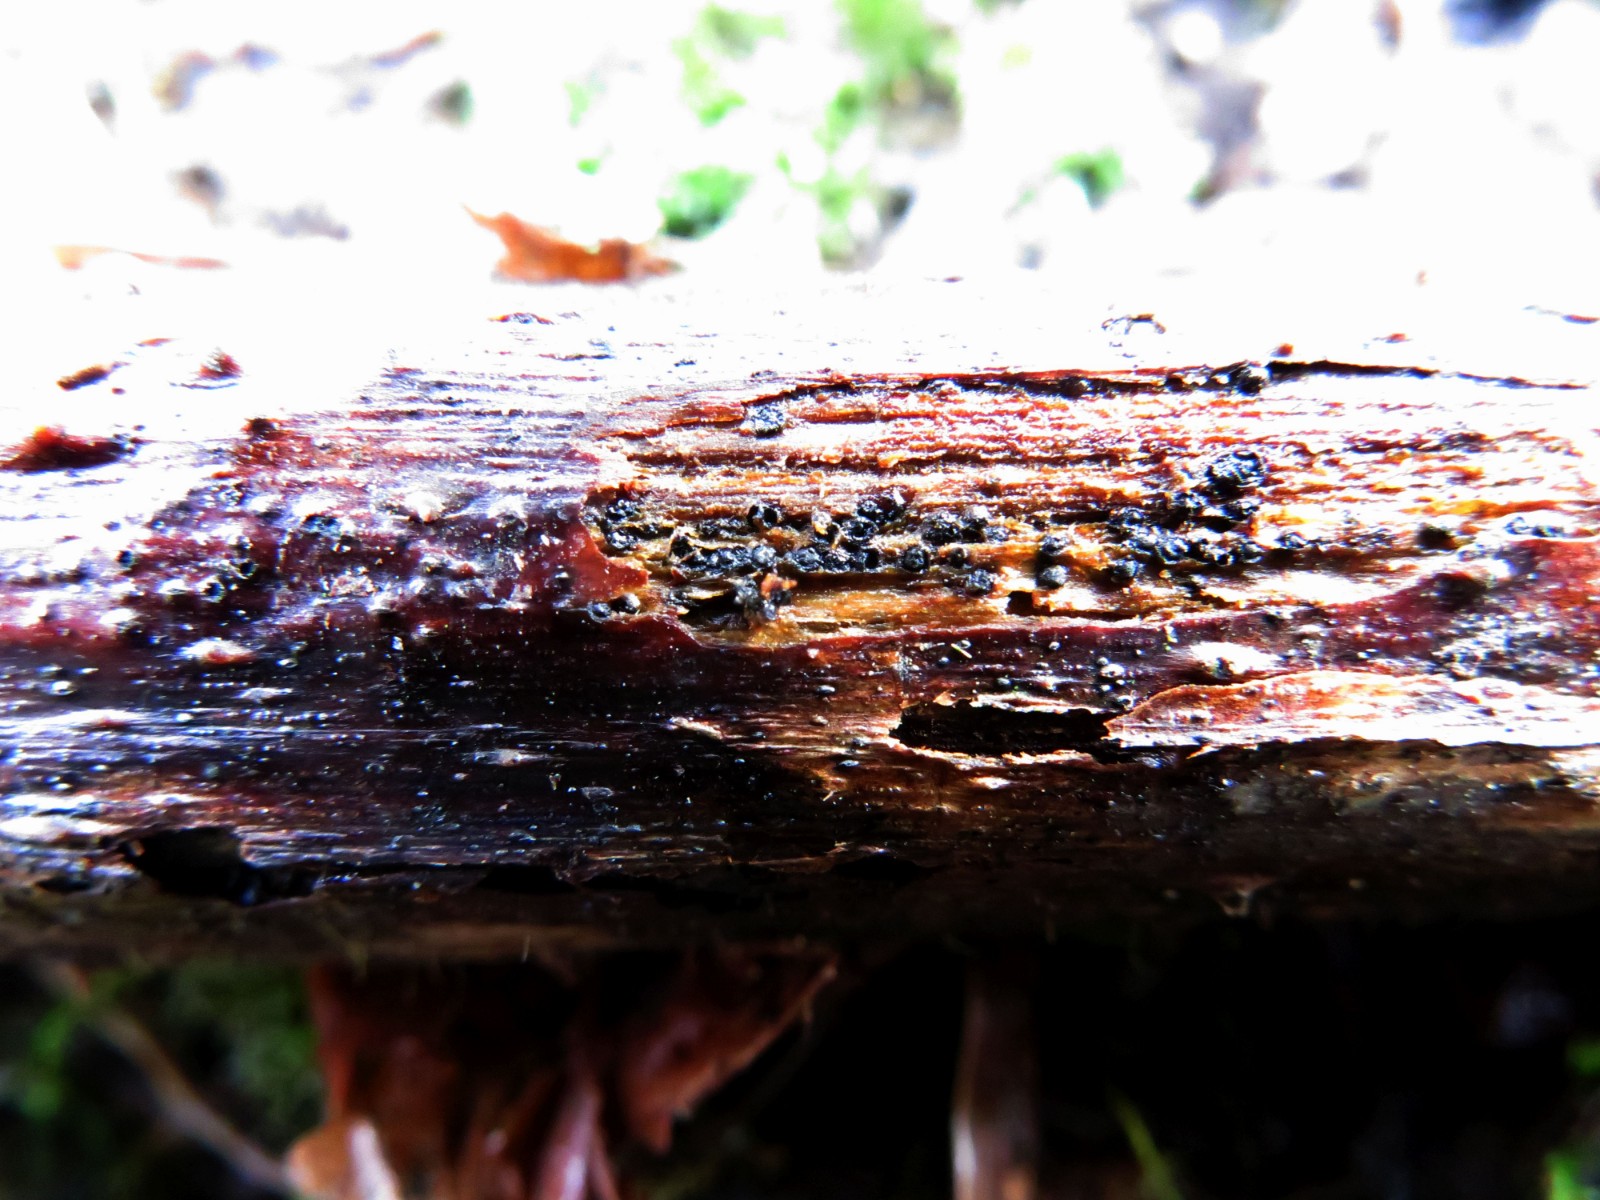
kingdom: Fungi
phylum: Ascomycota
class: Dothideomycetes
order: Botryosphaeriales
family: Botryosphaeriaceae
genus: Diplodia
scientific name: Diplodia rosarum
